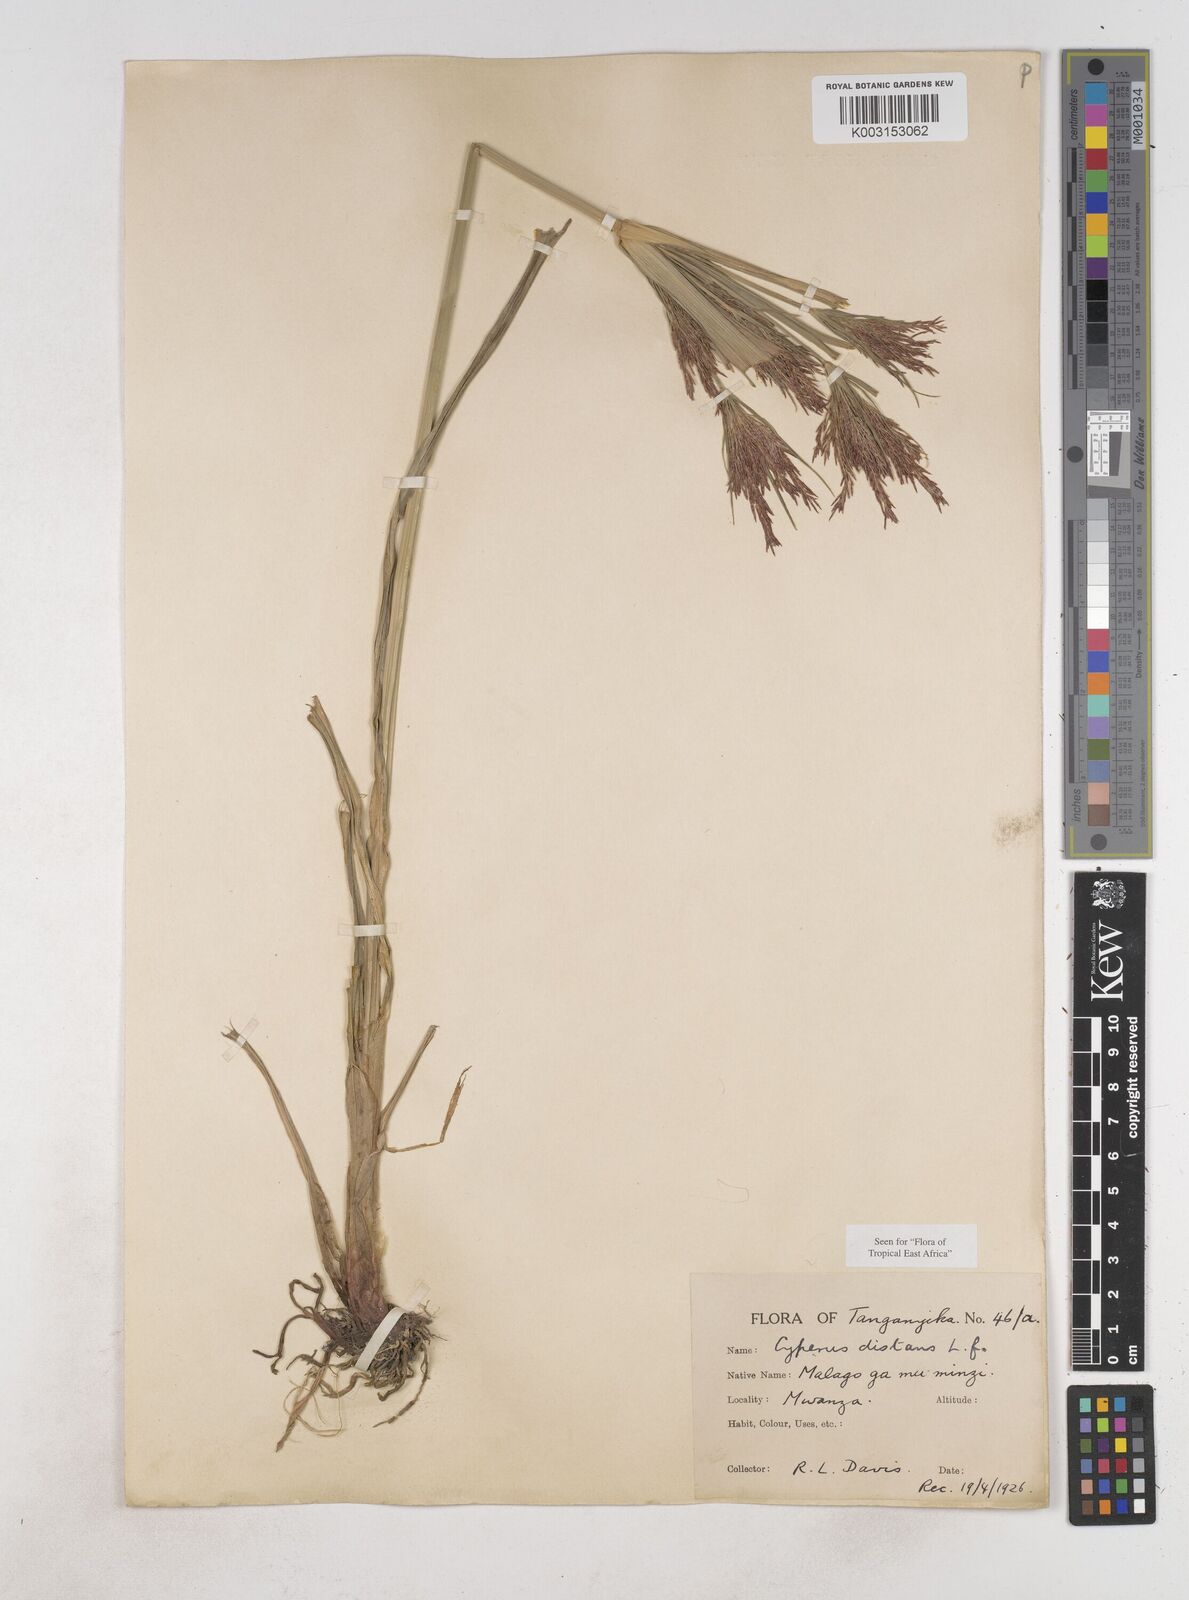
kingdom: Plantae
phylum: Tracheophyta
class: Liliopsida
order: Poales
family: Cyperaceae
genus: Cyperus
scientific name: Cyperus distans
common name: Slender cyperus
